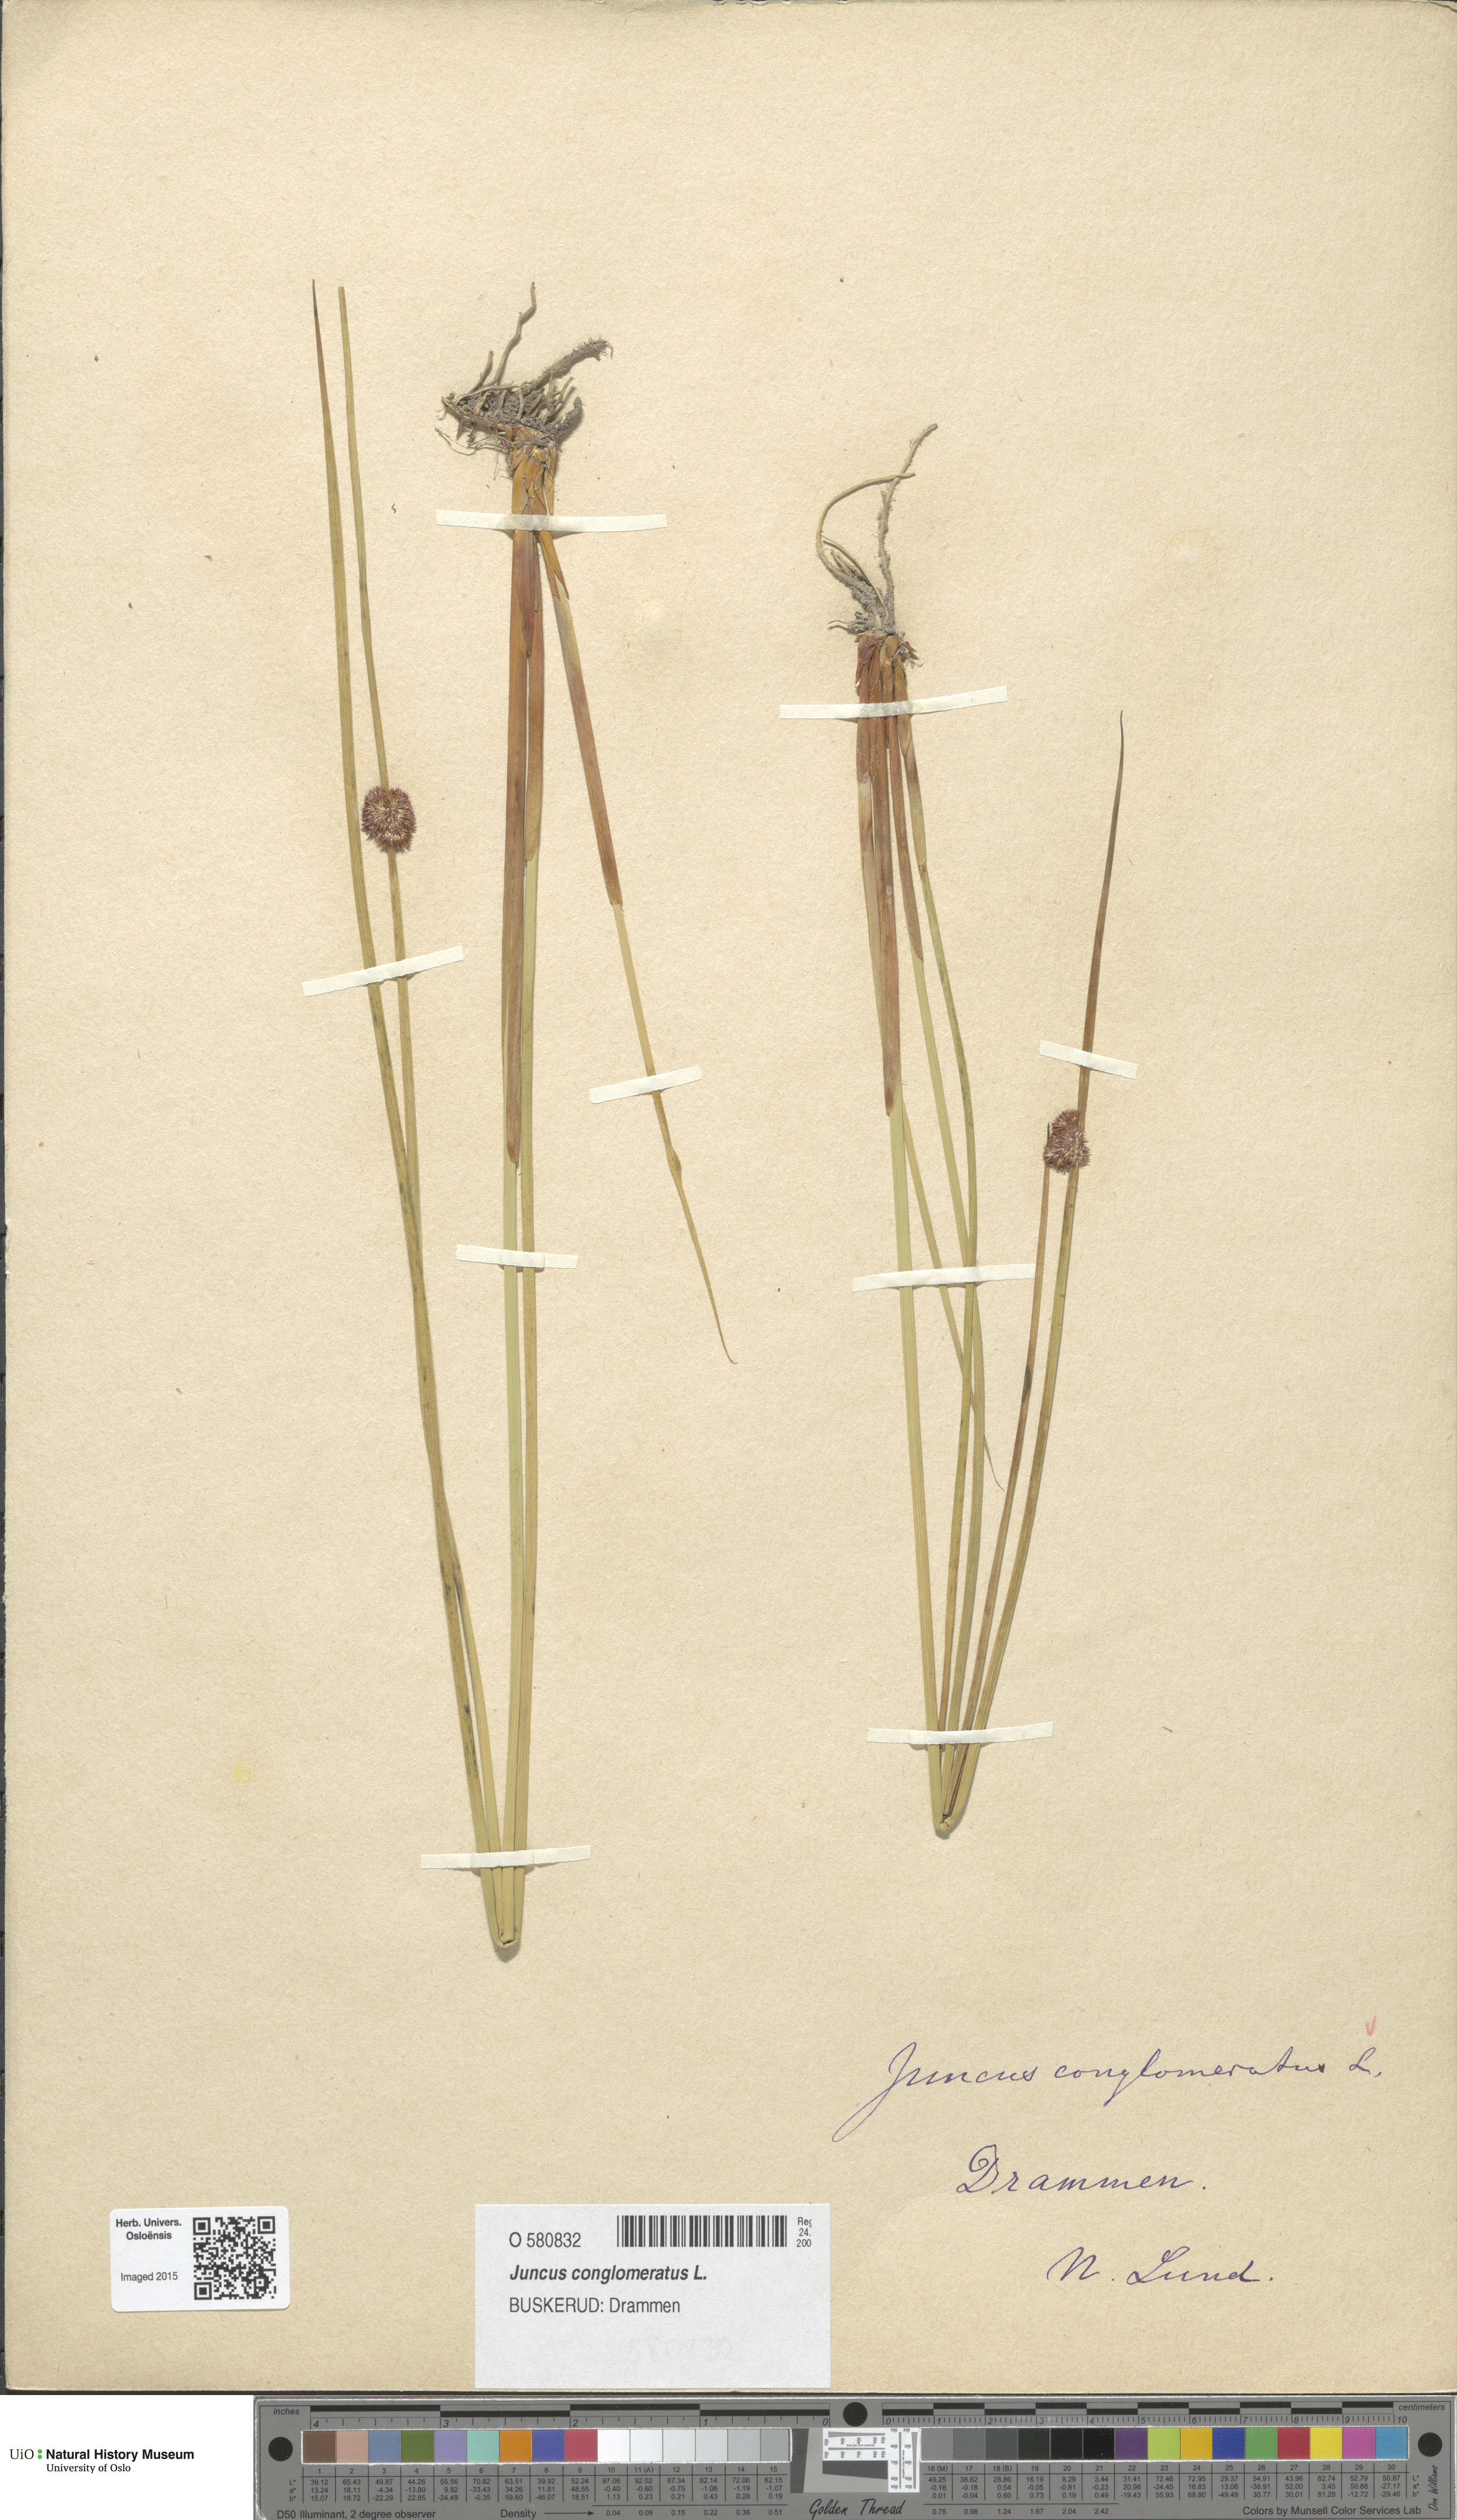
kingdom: Plantae
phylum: Tracheophyta
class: Liliopsida
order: Poales
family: Juncaceae
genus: Juncus
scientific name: Juncus conglomeratus
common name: Compact rush
